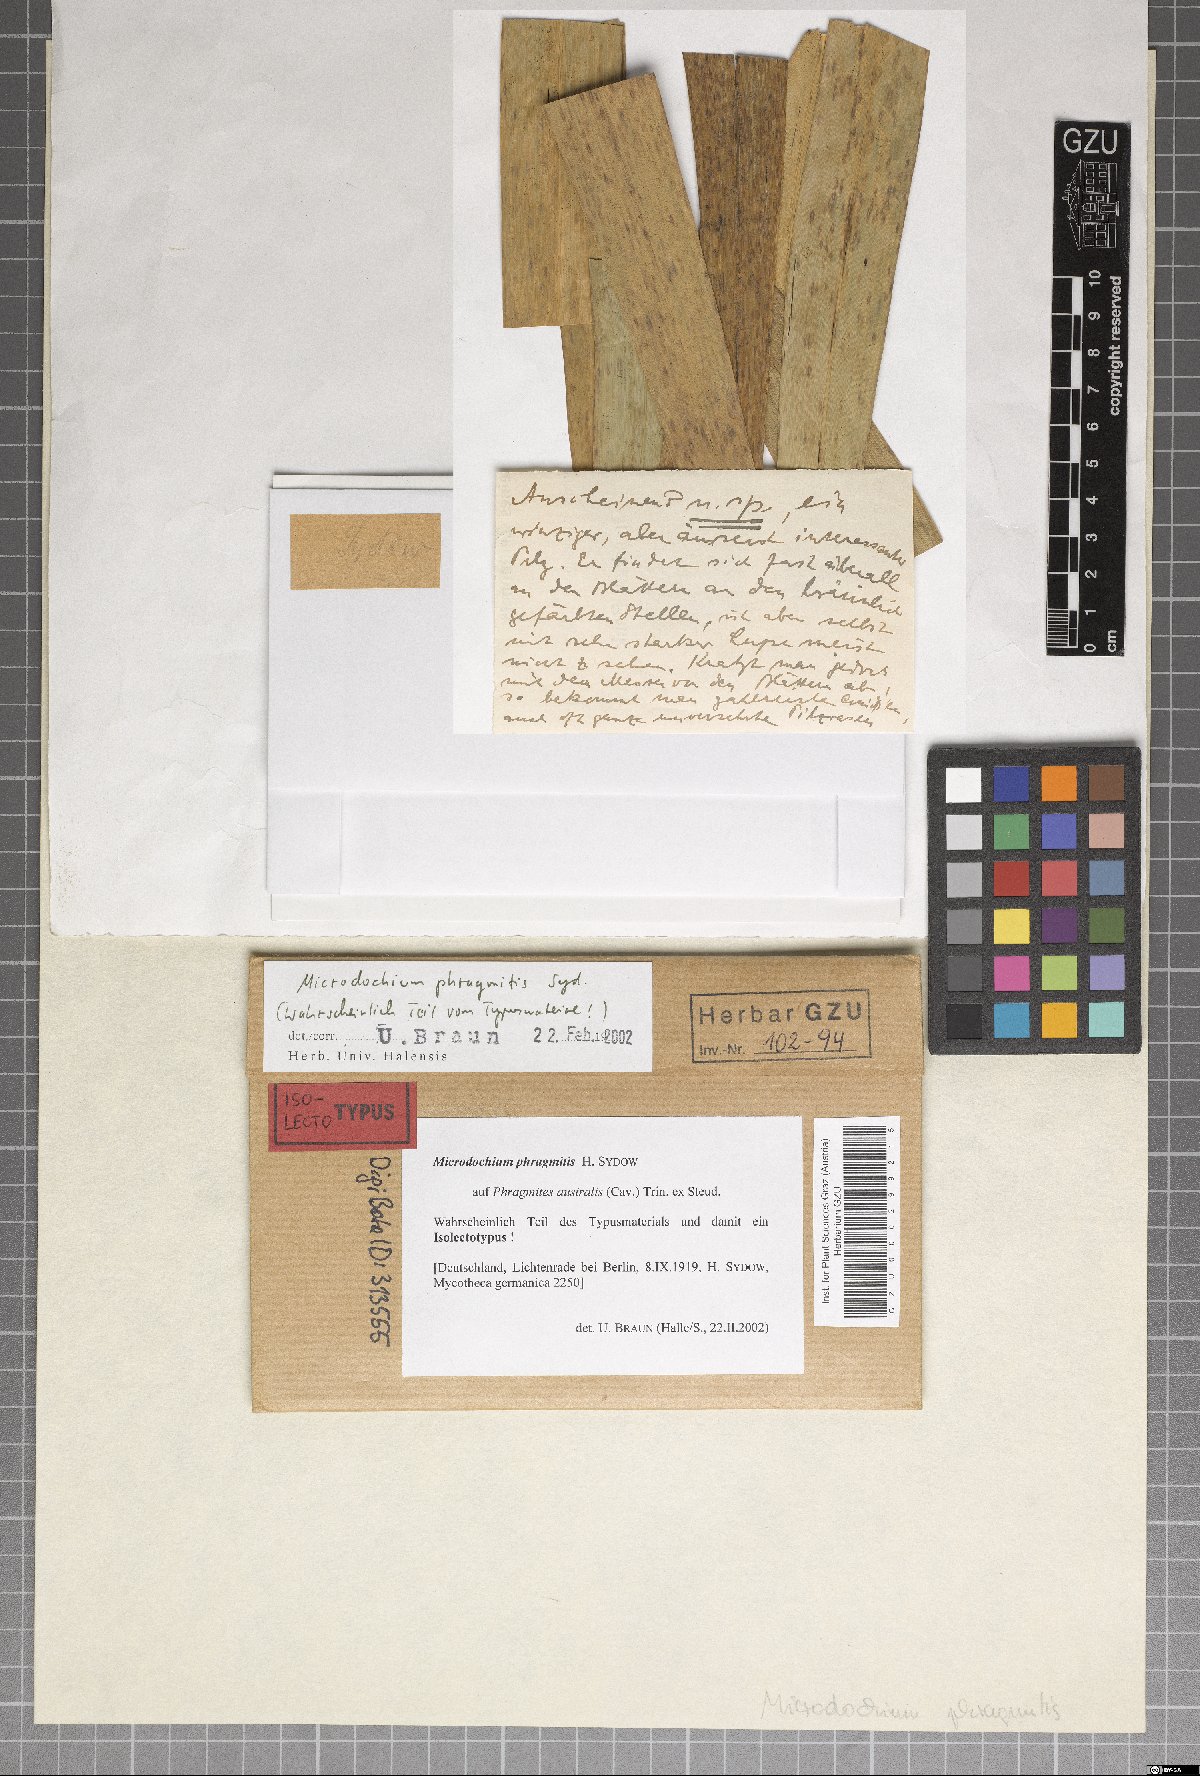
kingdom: Fungi
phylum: Ascomycota
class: Sordariomycetes
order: Amphisphaeriales
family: Amphisphaeriaceae
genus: Microdochium
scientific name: Microdochium phragmitis
